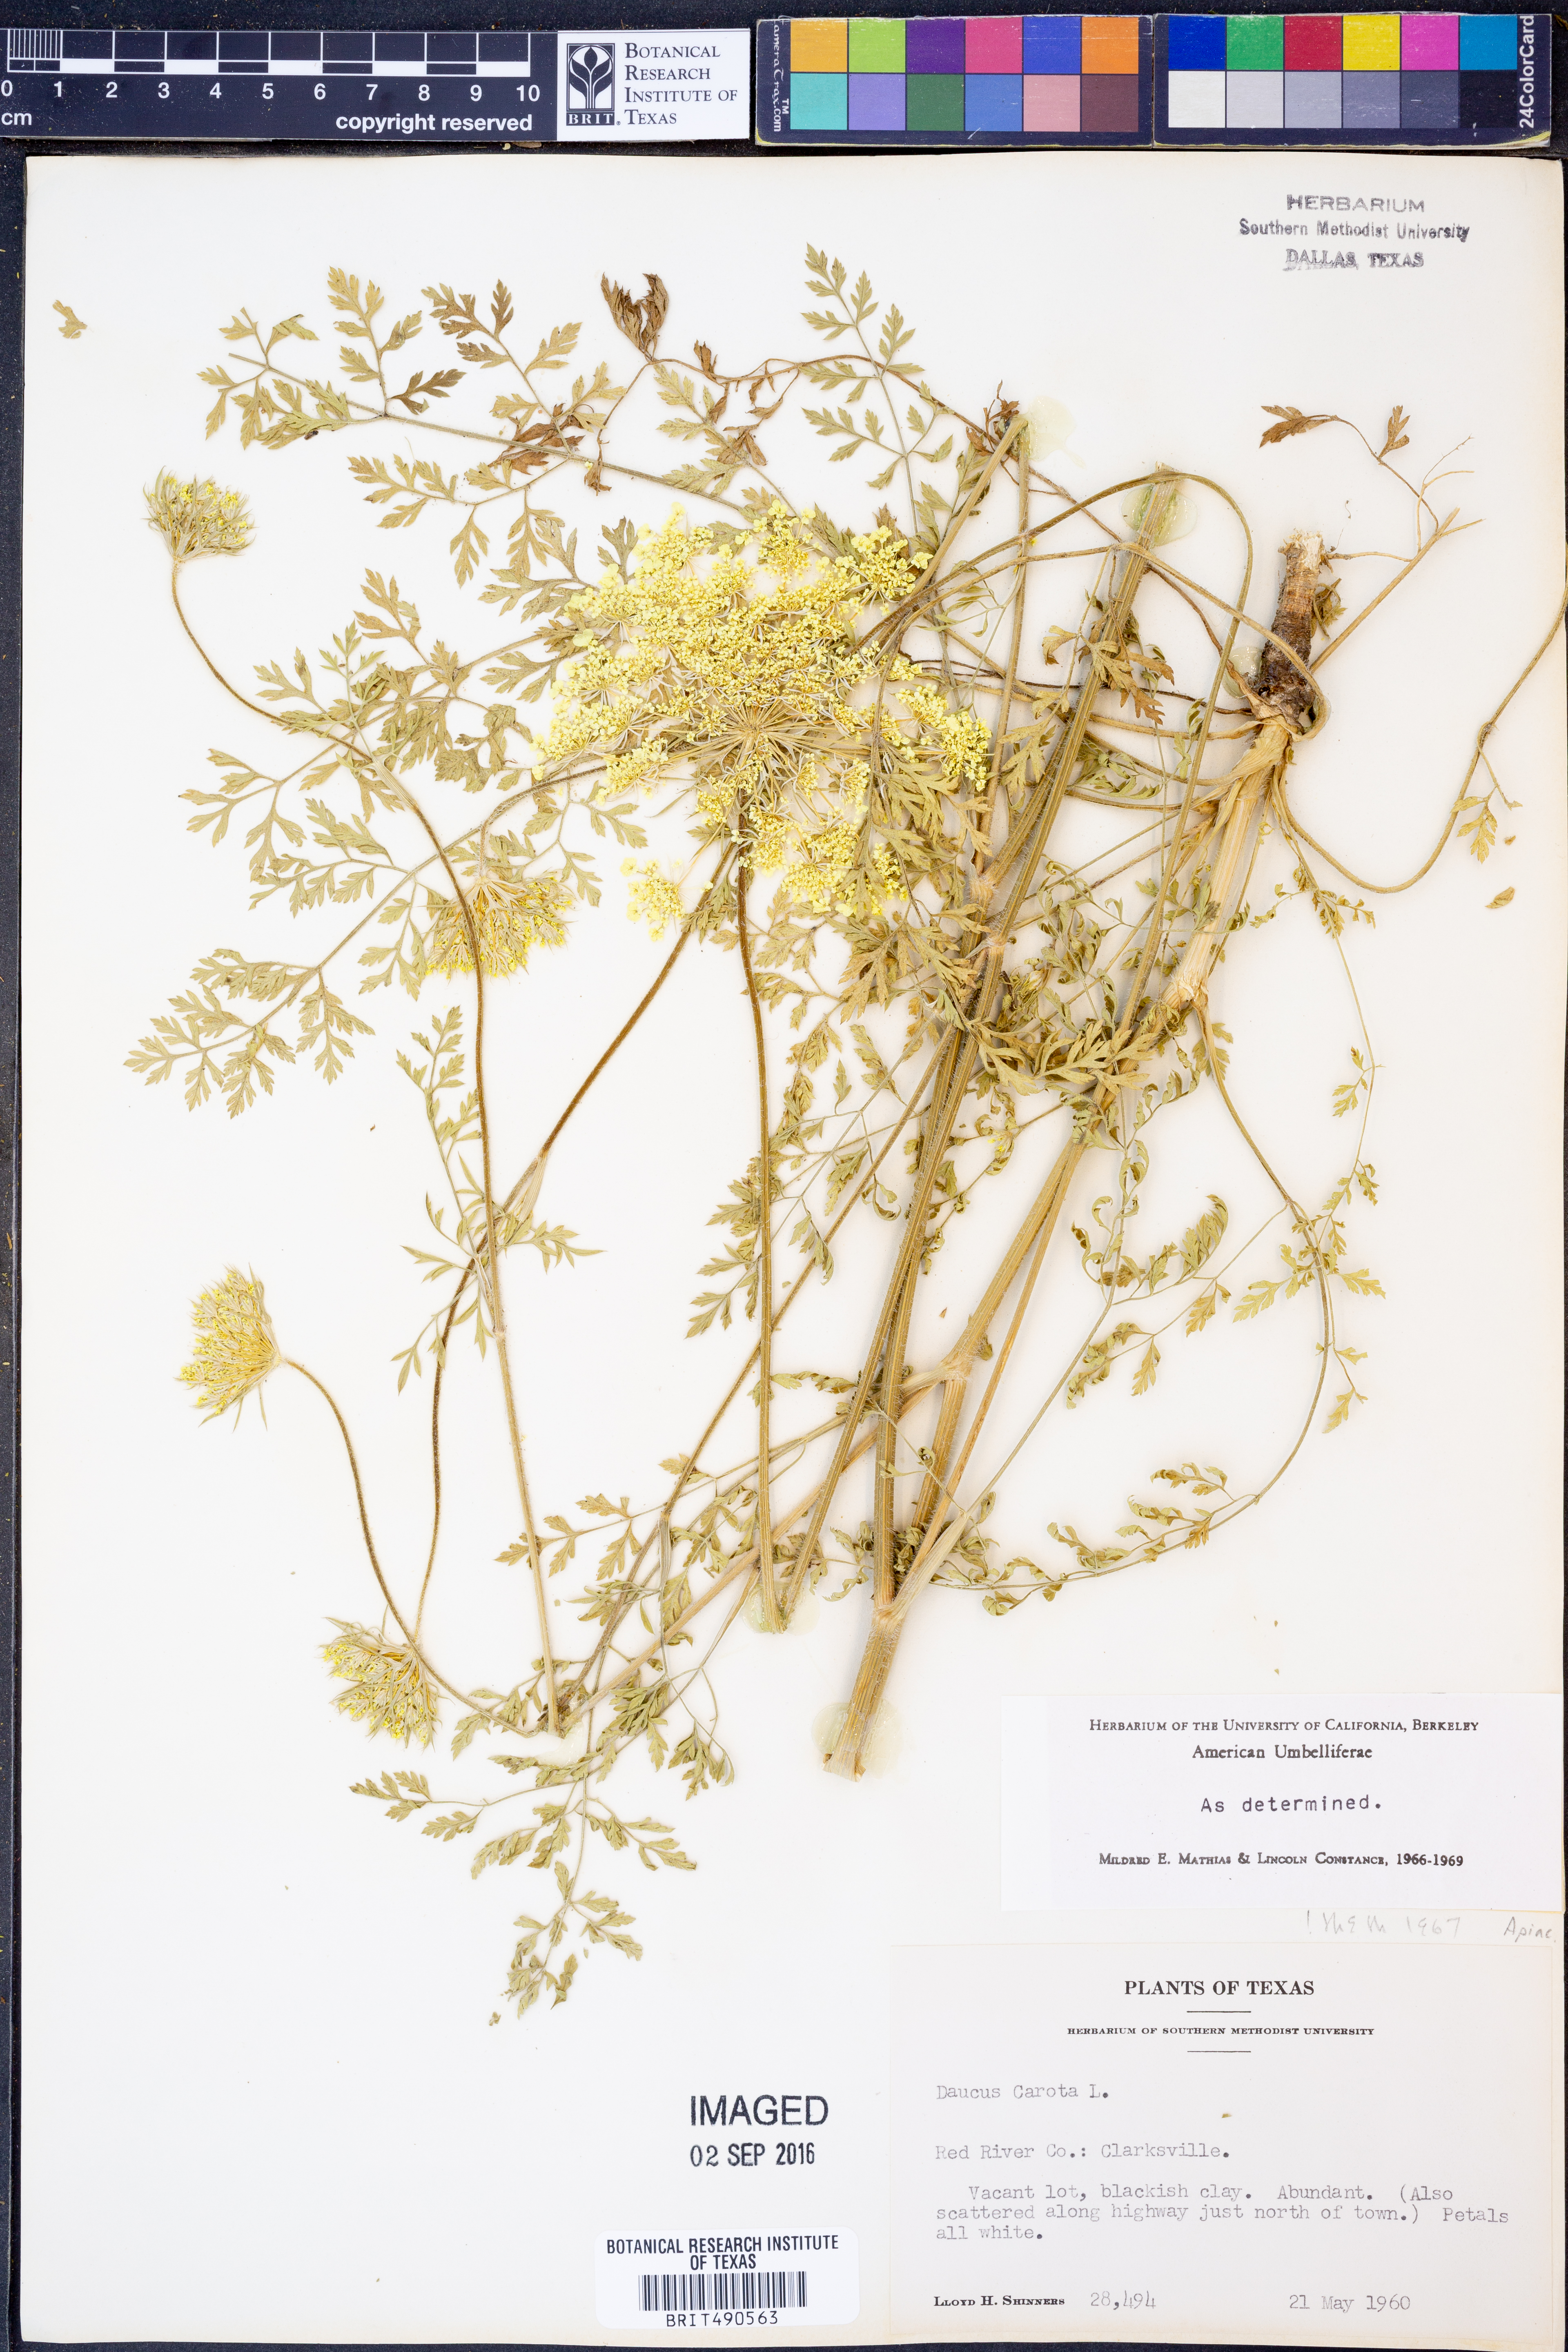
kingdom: Plantae
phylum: Tracheophyta
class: Magnoliopsida
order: Apiales
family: Apiaceae
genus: Daucus
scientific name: Daucus carota
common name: Wild carrot
